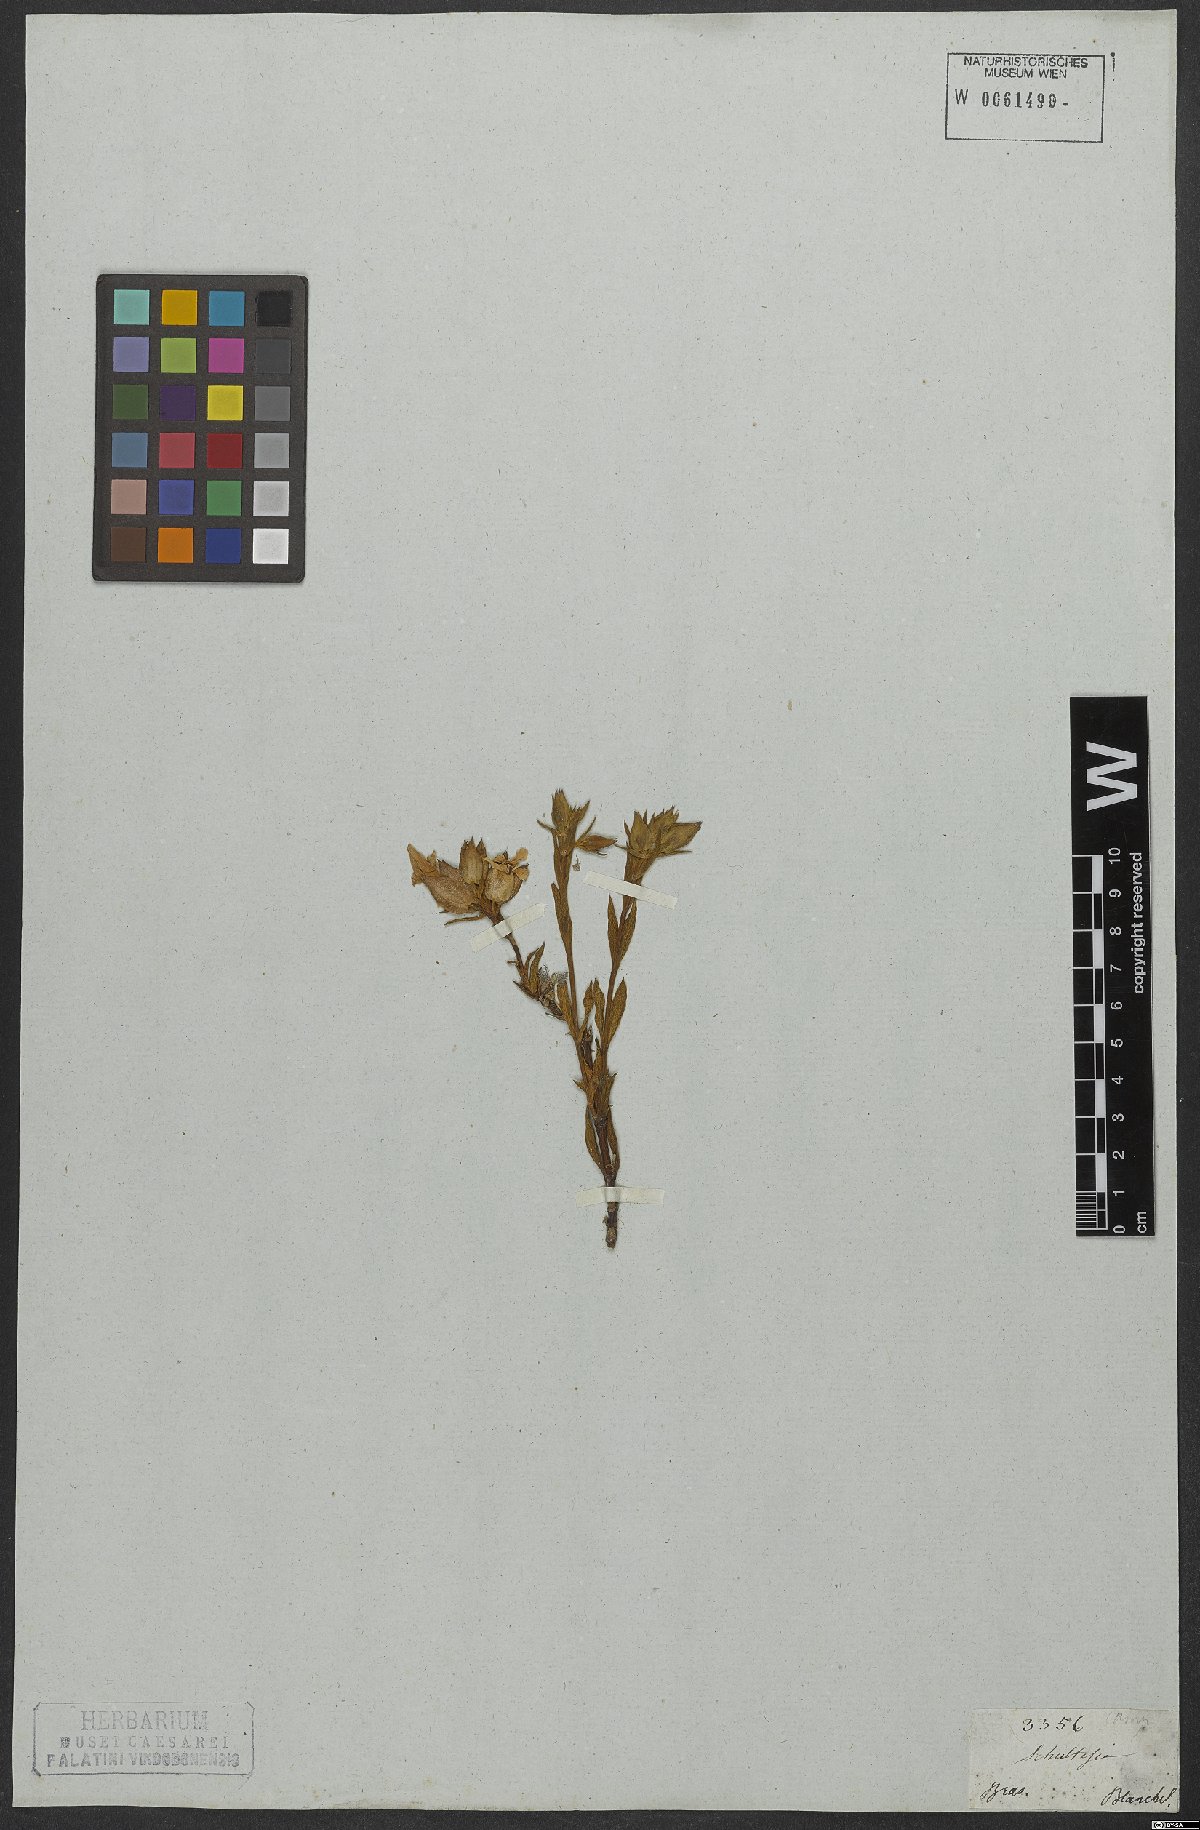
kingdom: Plantae
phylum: Tracheophyta
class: Magnoliopsida
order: Gentianales
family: Gentianaceae
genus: Schultesia
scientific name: Schultesia pachyphylla
